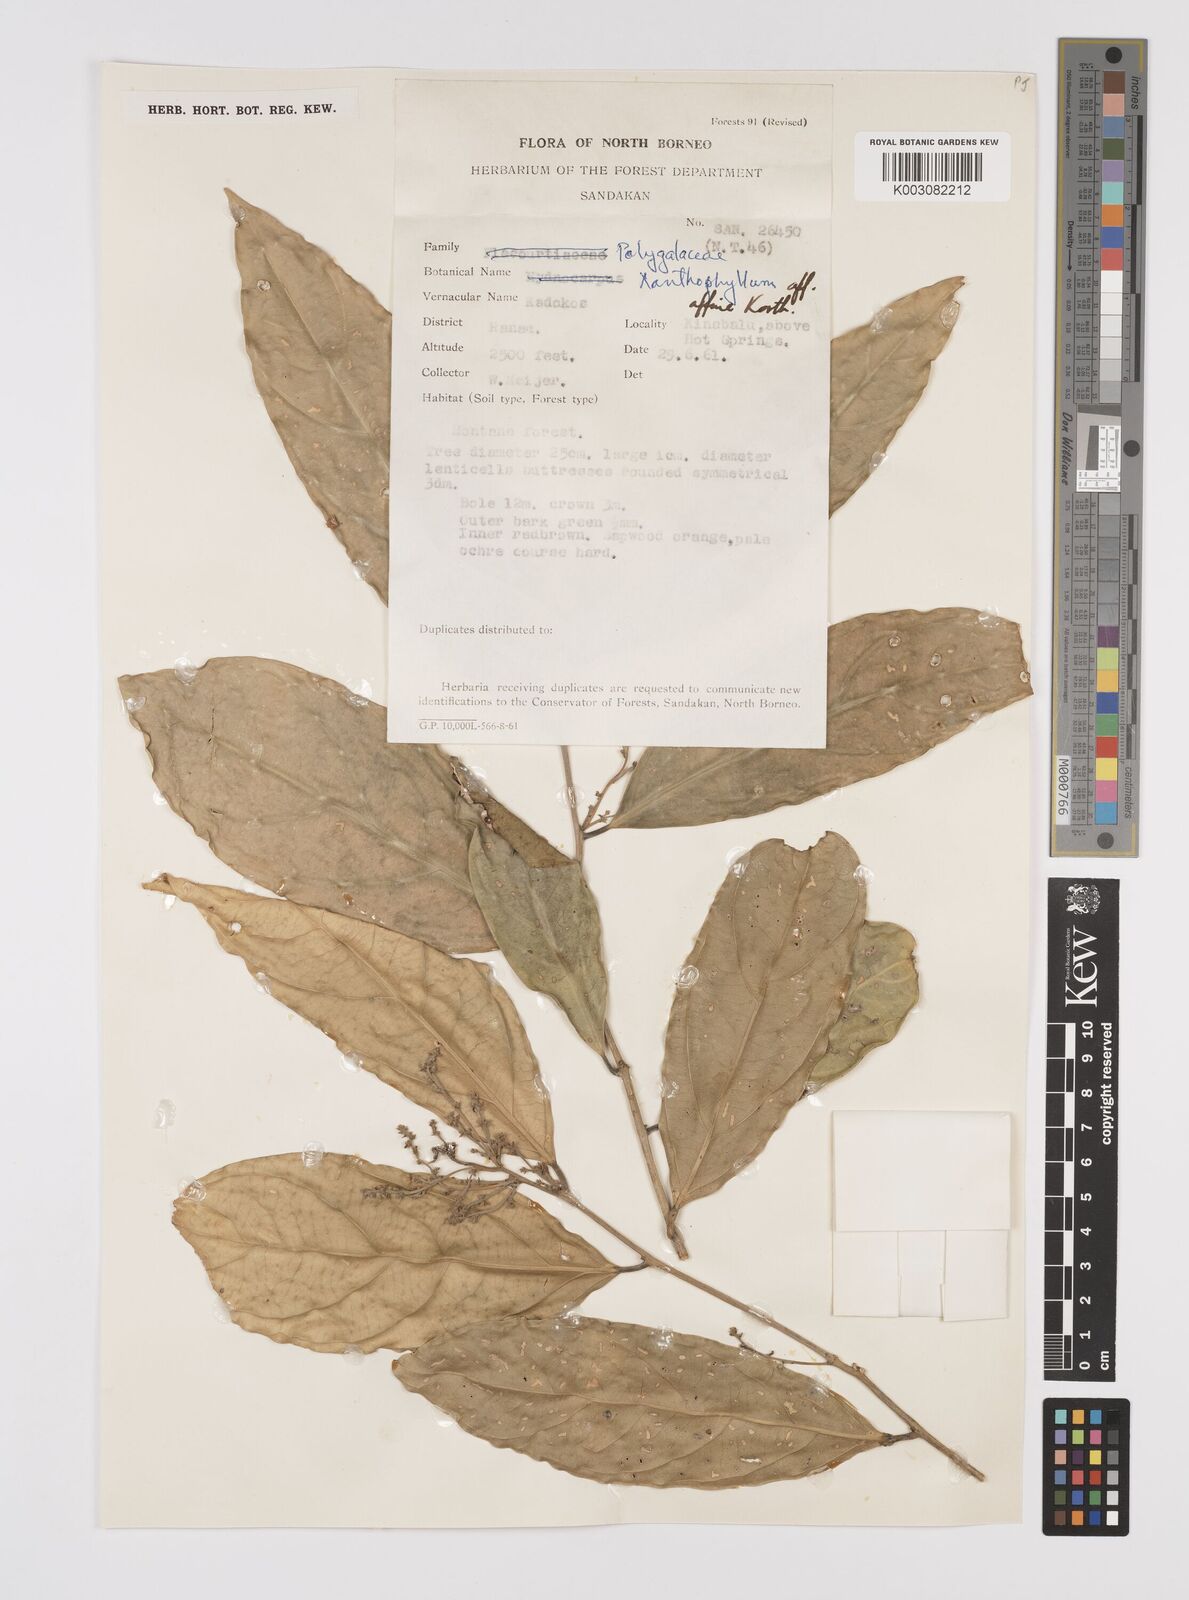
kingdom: Plantae
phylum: Tracheophyta
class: Magnoliopsida
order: Fabales
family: Polygalaceae
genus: Xanthophyllum
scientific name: Xanthophyllum flavescens
